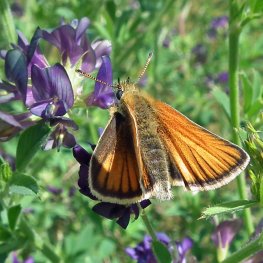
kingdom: Animalia
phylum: Arthropoda
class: Insecta
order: Lepidoptera
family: Hesperiidae
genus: Thymelicus
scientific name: Thymelicus lineola
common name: European Skipper
